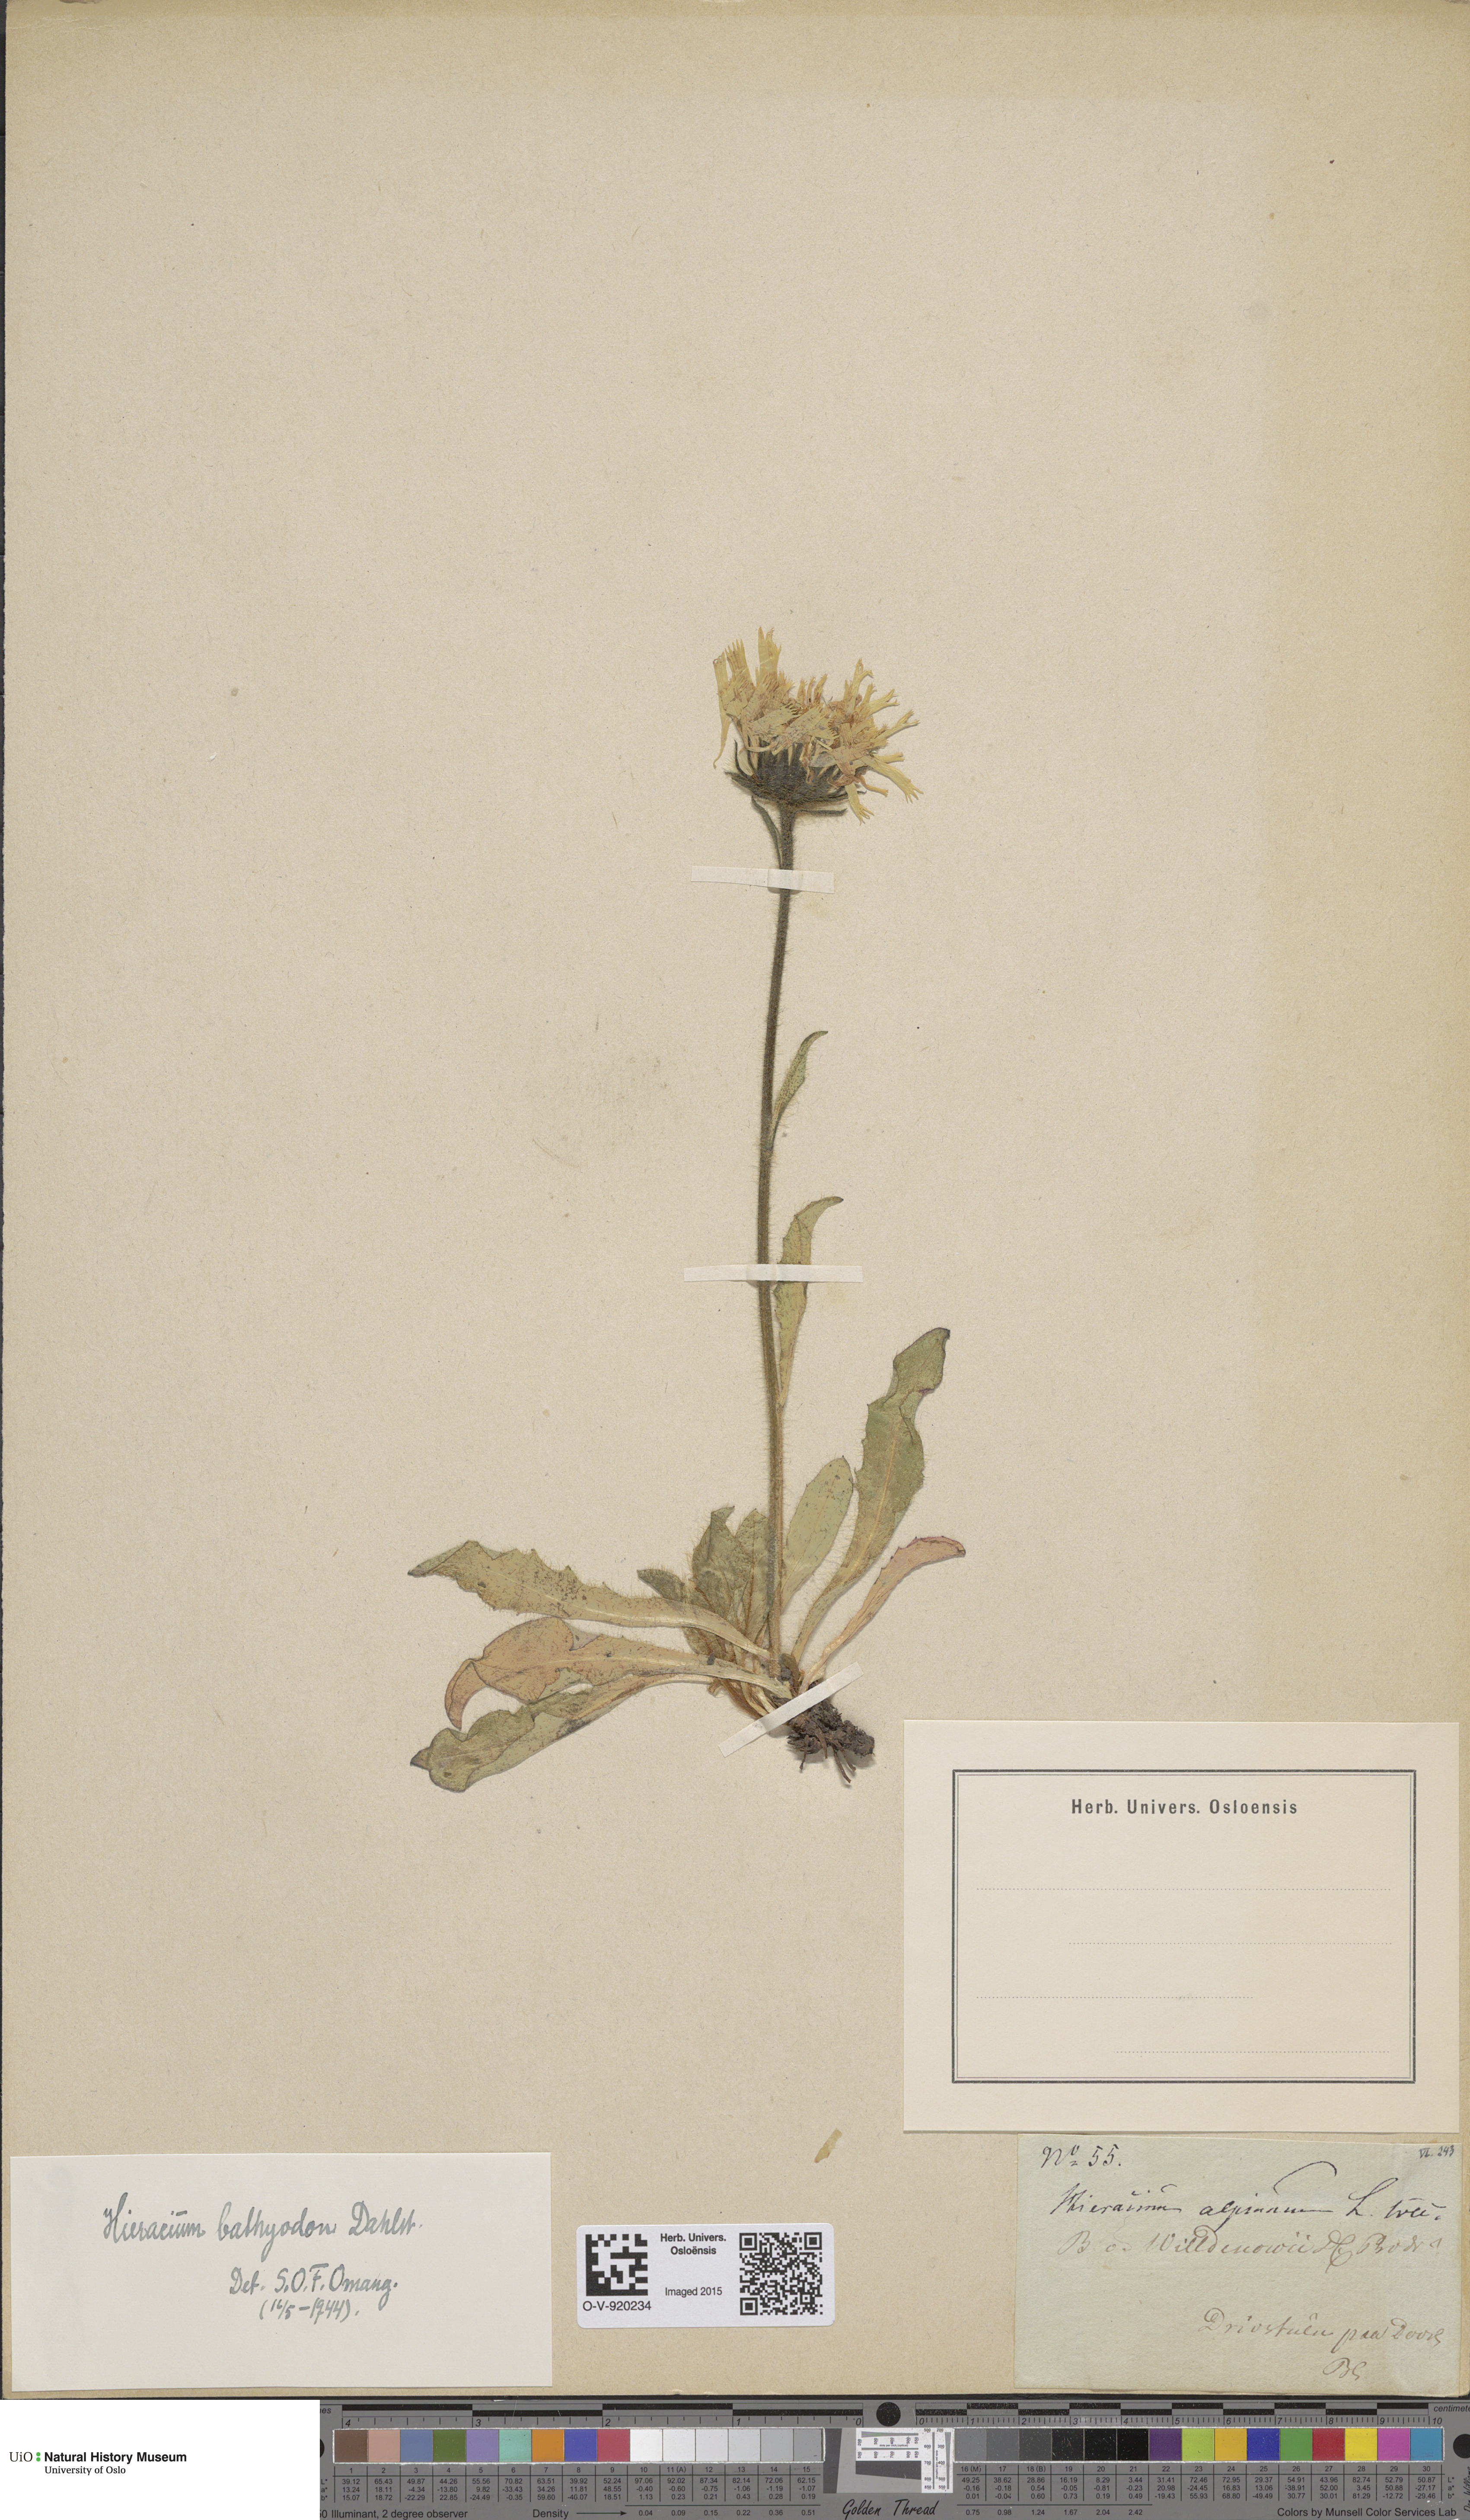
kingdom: Plantae
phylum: Tracheophyta
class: Magnoliopsida
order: Asterales
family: Asteraceae
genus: Hieracium
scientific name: Hieracium
